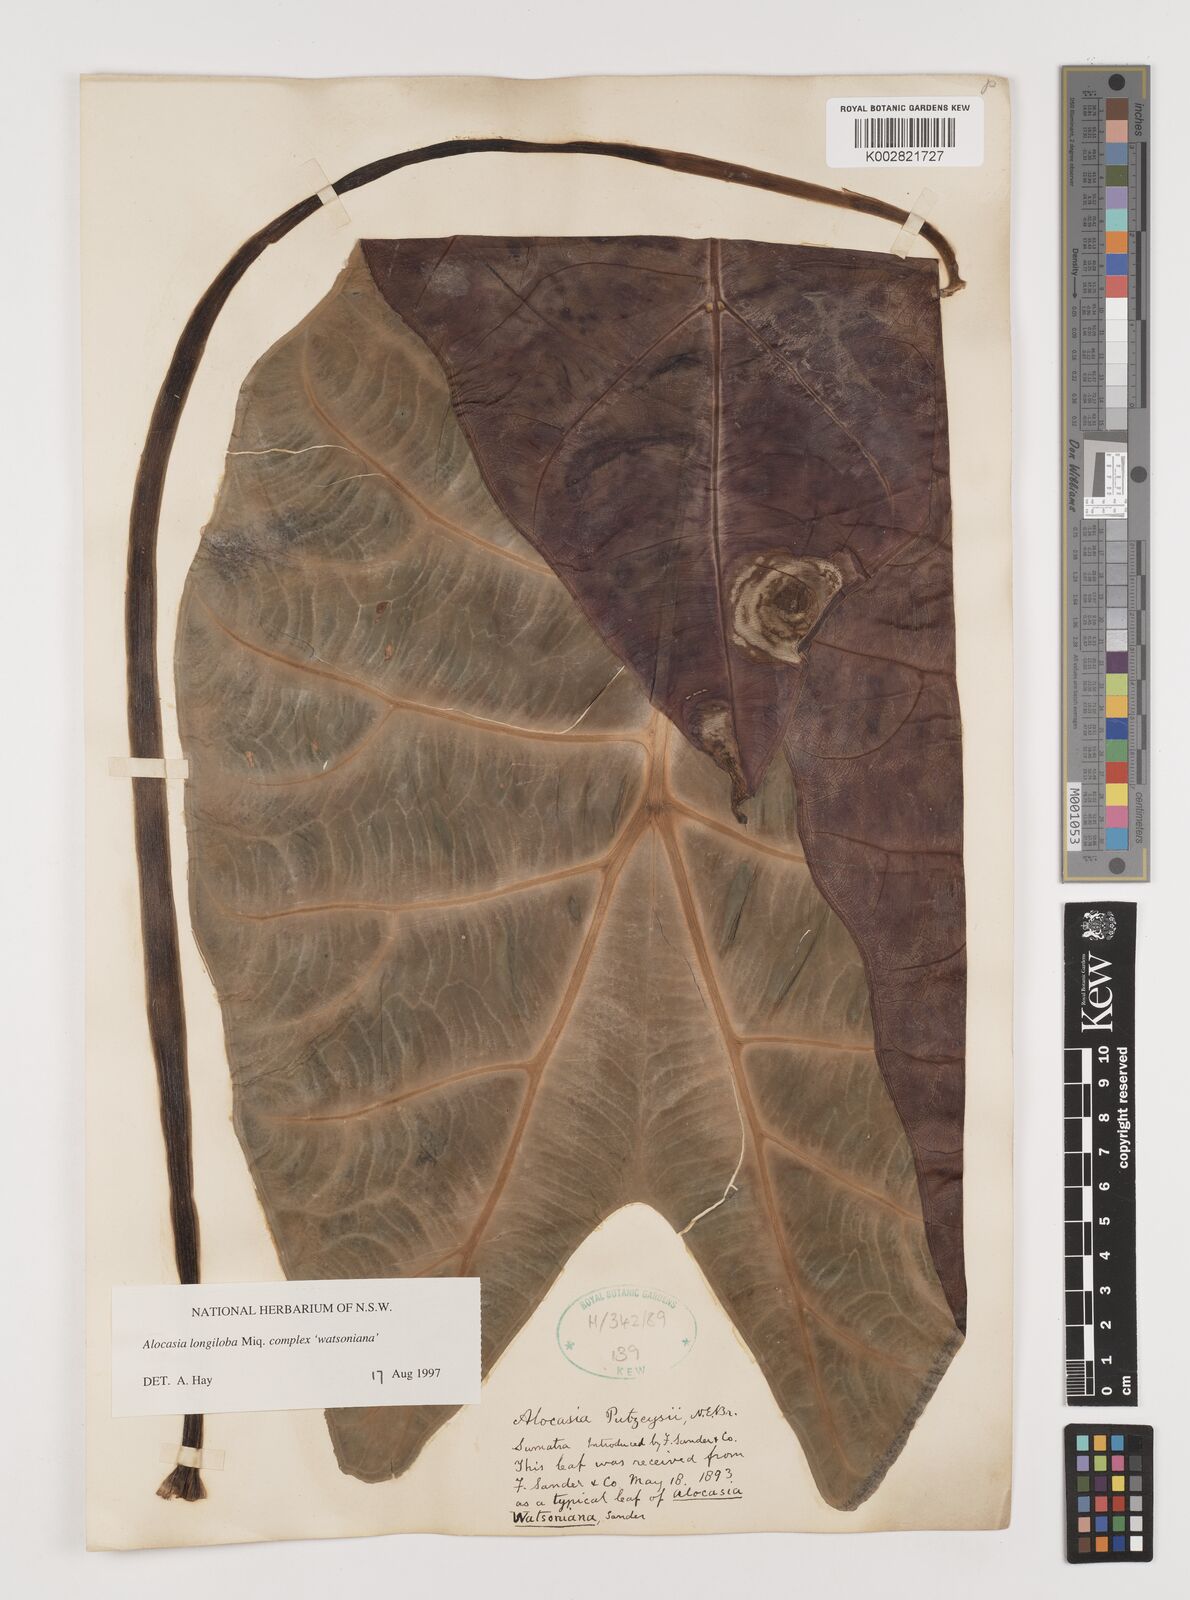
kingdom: Plantae
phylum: Tracheophyta
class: Liliopsida
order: Alismatales
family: Araceae
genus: Alocasia
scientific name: Alocasia longiloba
